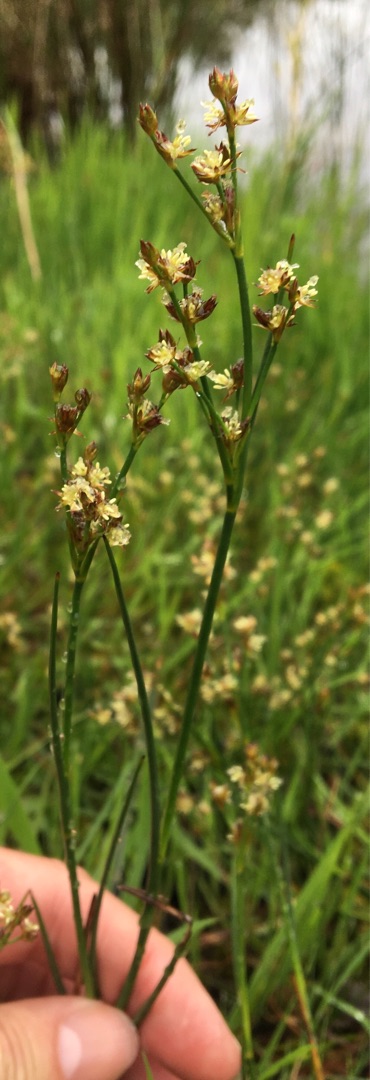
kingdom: Plantae
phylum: Tracheophyta
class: Liliopsida
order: Poales
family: Juncaceae
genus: Juncus
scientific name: Juncus articulatus
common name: Glanskapslet siv
